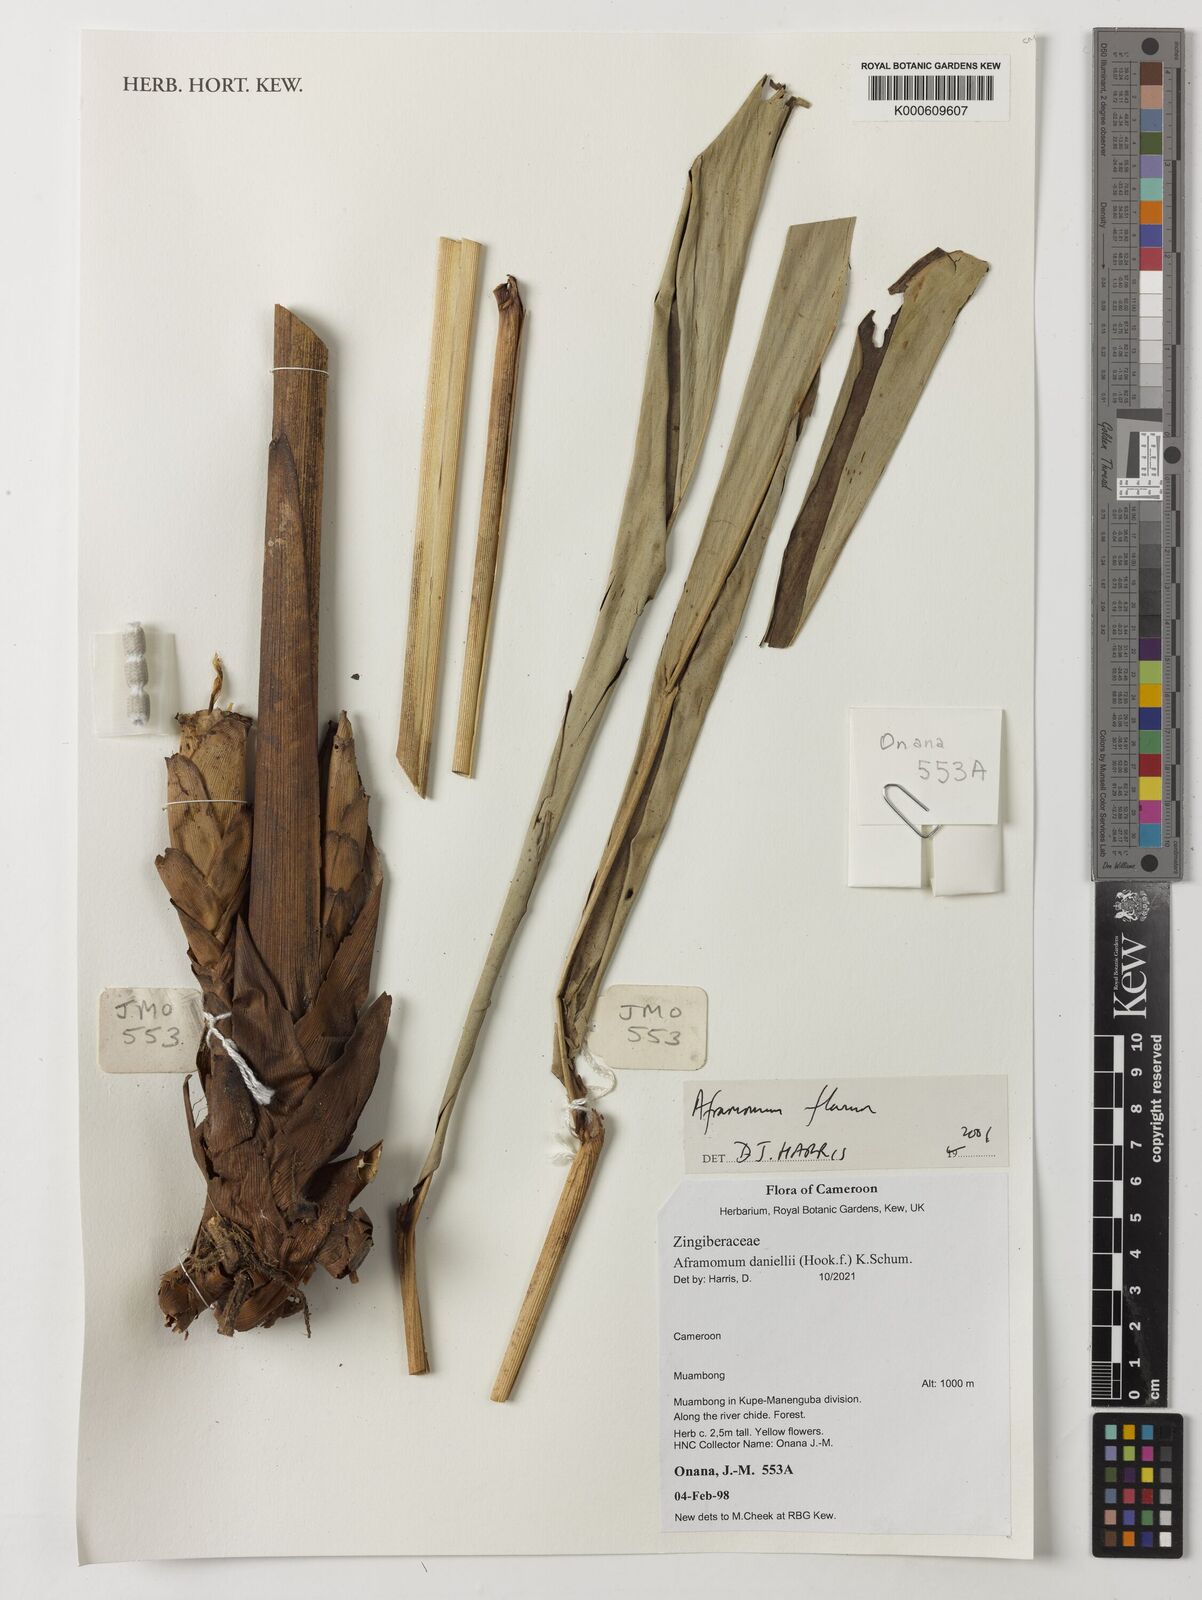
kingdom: Plantae
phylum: Tracheophyta
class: Liliopsida
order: Zingiberales
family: Zingiberaceae
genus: Aframomum
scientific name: Aframomum daniellii
